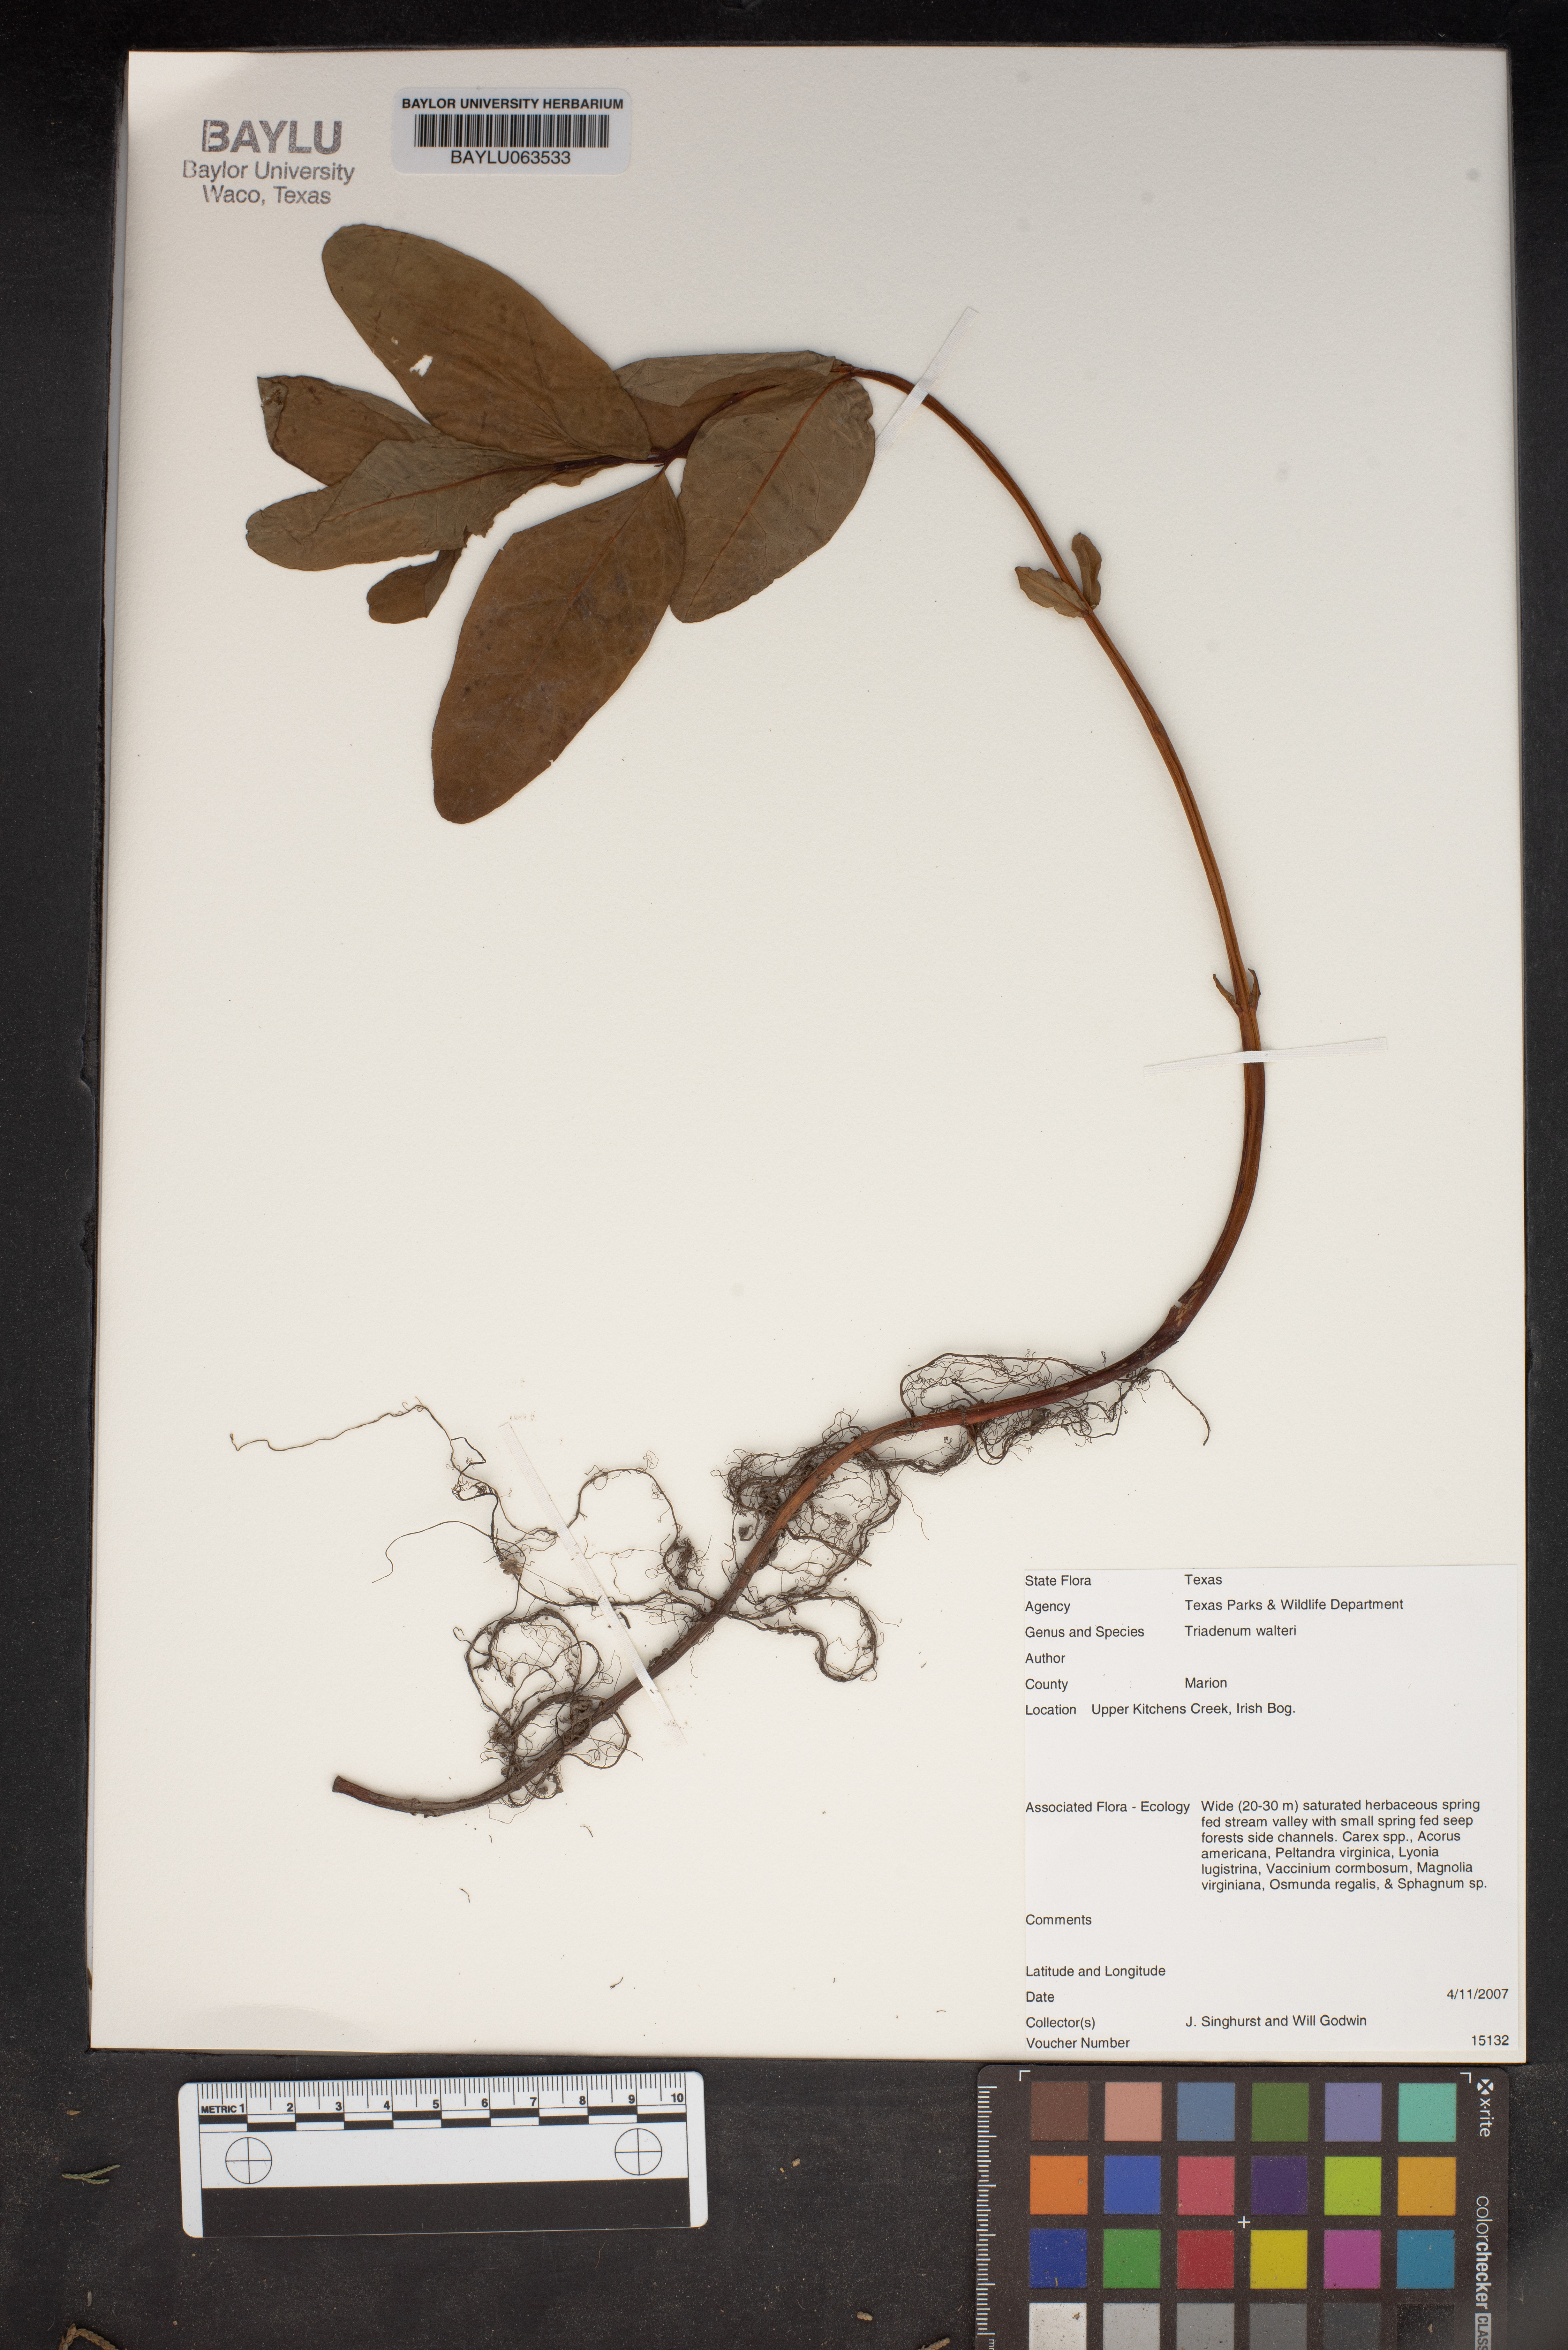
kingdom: Plantae
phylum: Tracheophyta
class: Magnoliopsida
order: Malpighiales
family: Hypericaceae
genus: Triadenum
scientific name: Triadenum walteri
